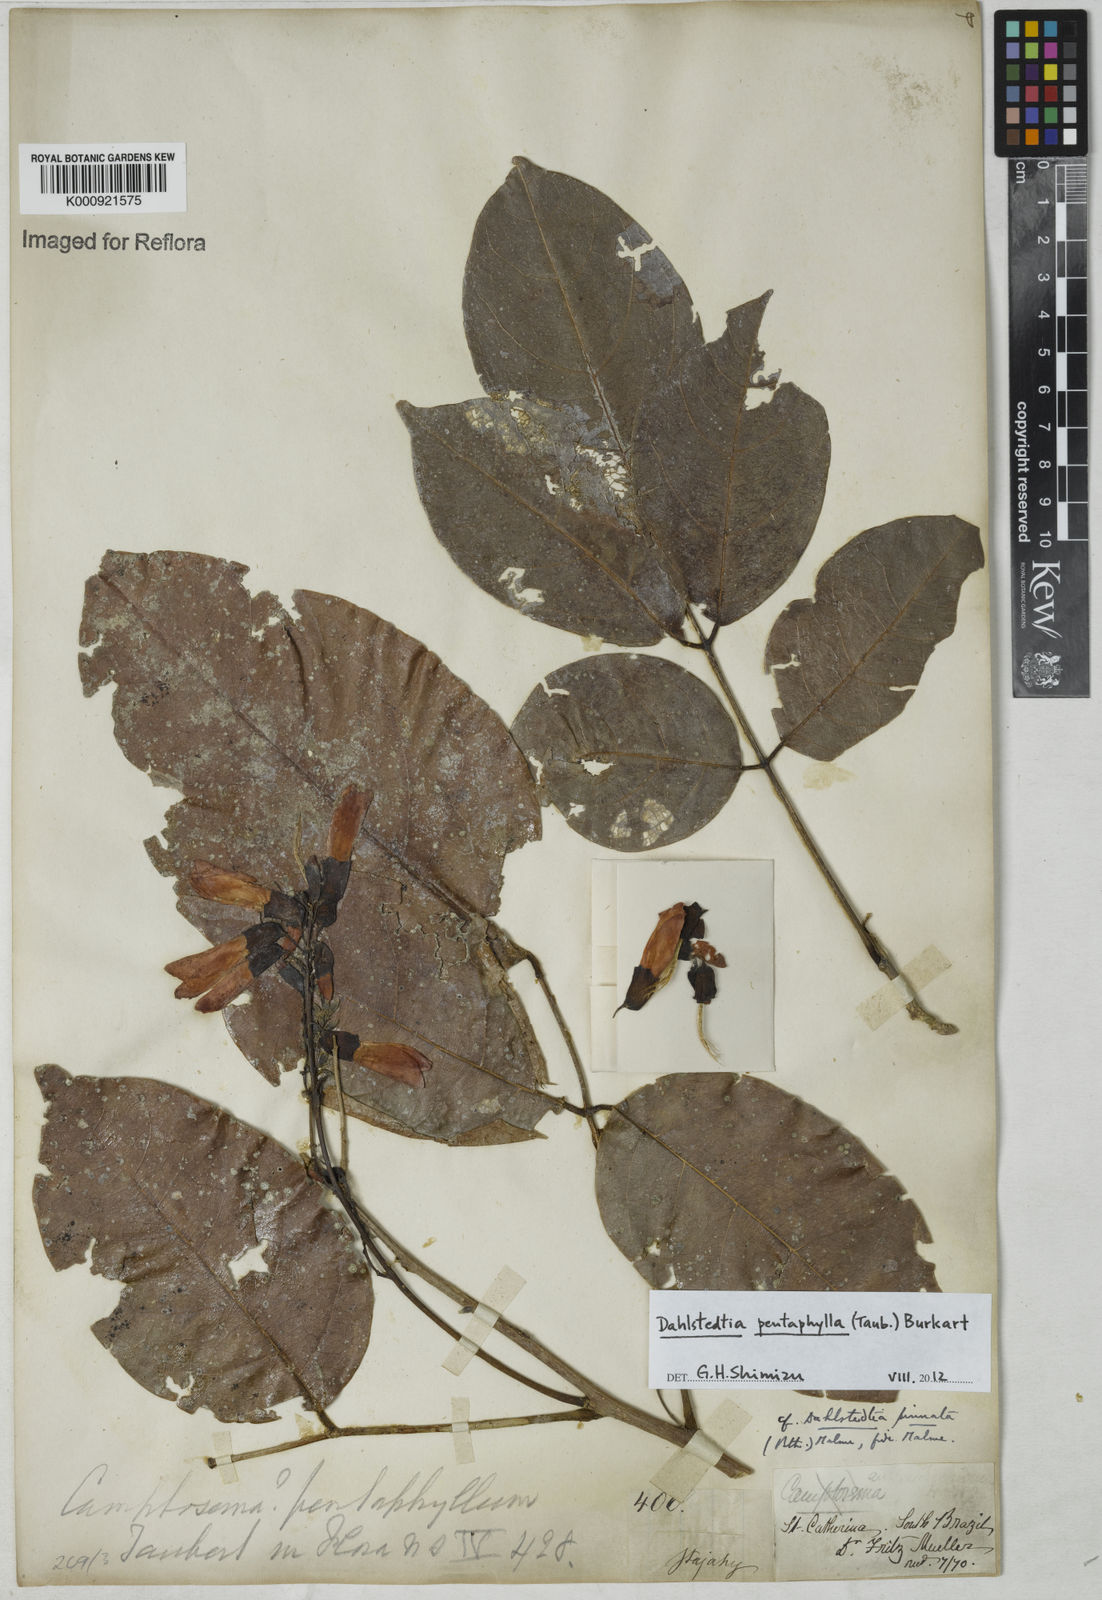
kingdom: Plantae
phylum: Tracheophyta
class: Magnoliopsida
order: Fabales
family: Fabaceae
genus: Dahlstedtia
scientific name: Dahlstedtia pentaphylla
